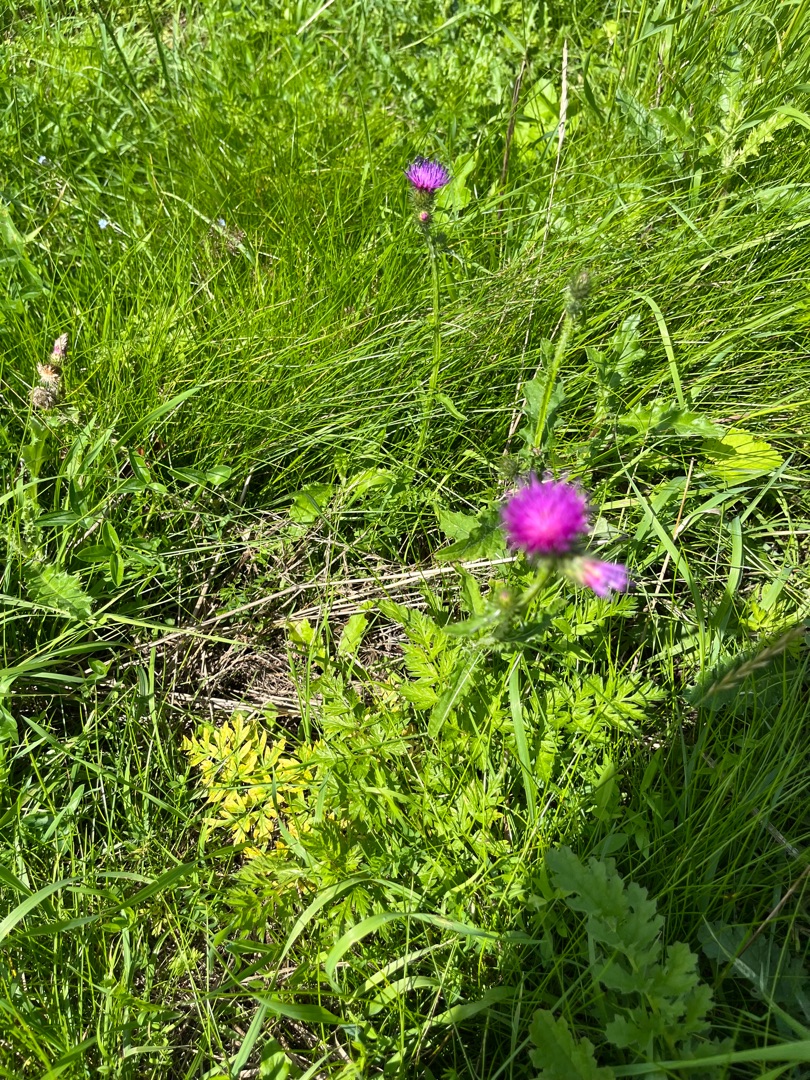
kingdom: Plantae
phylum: Tracheophyta
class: Magnoliopsida
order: Asterales
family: Asteraceae
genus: Carduus
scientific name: Carduus crispus
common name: Kruset tidsel
